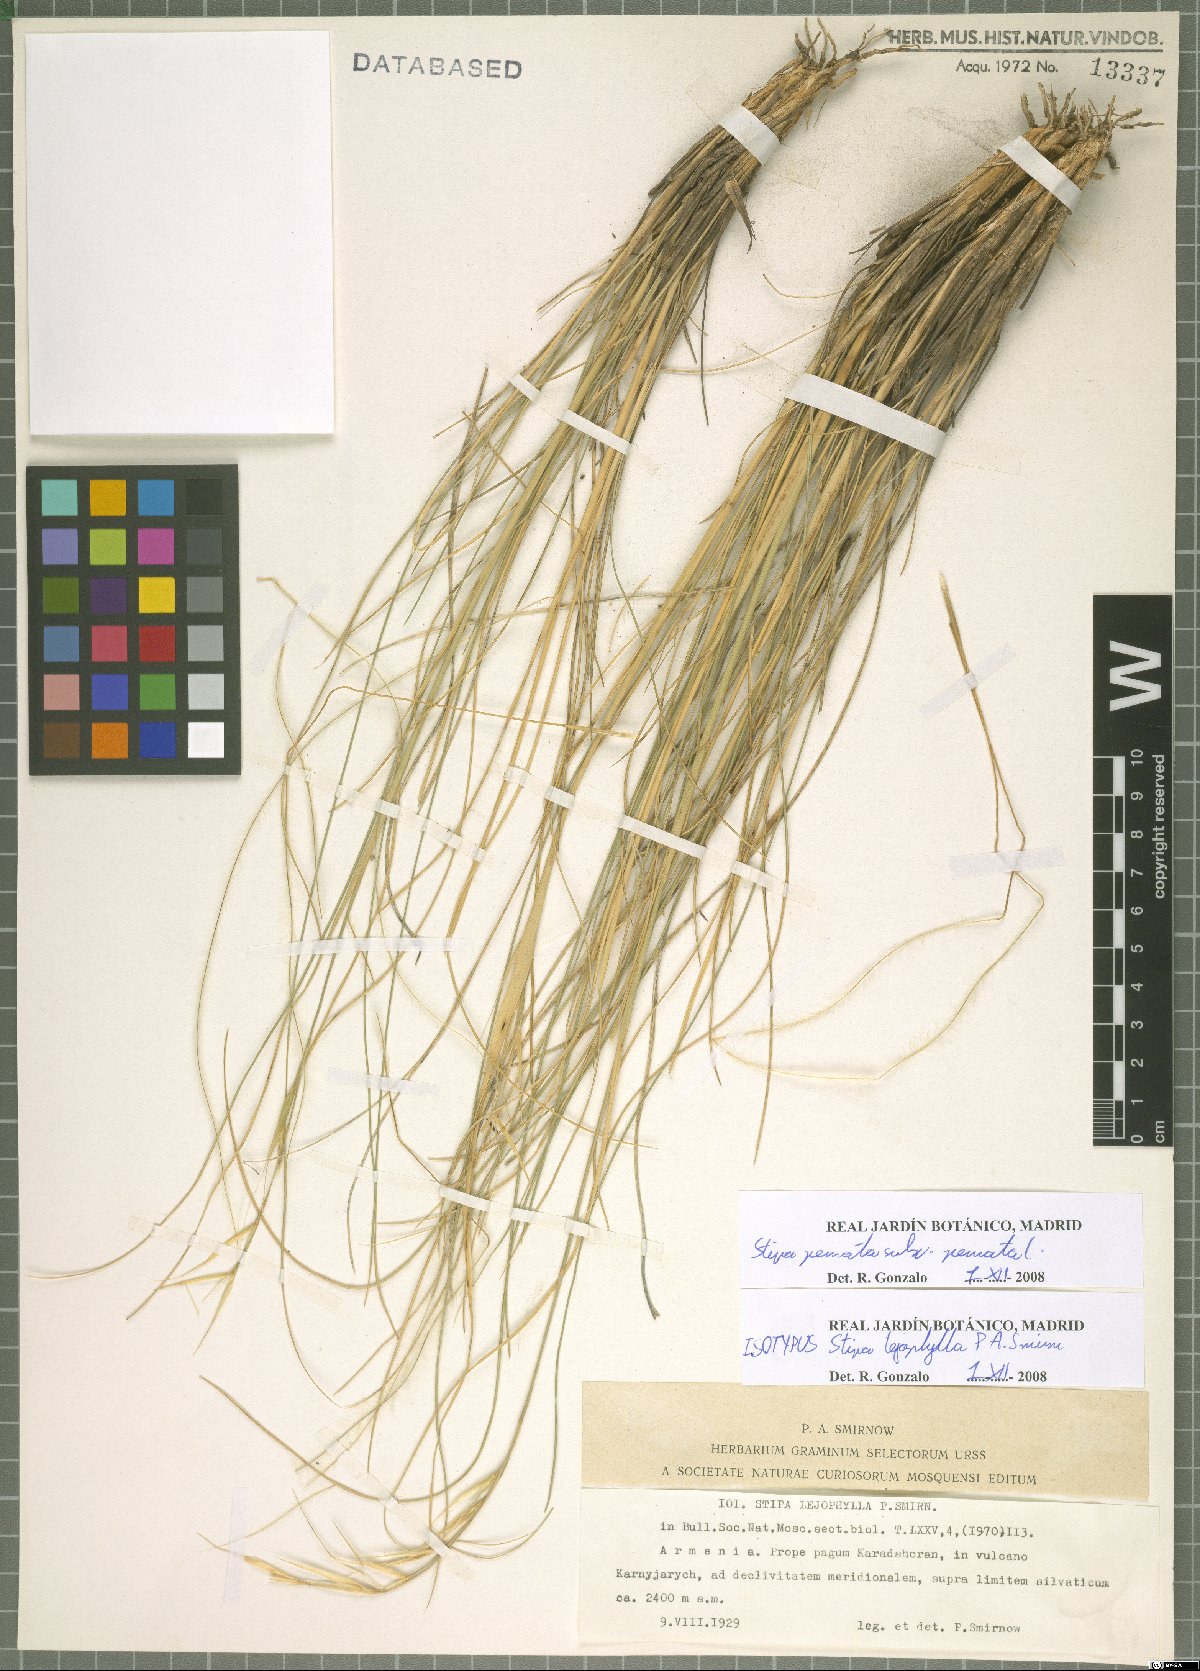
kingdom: Plantae
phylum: Tracheophyta
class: Liliopsida
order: Poales
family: Poaceae
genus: Stipa
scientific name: Stipa pennata
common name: European feather grass
